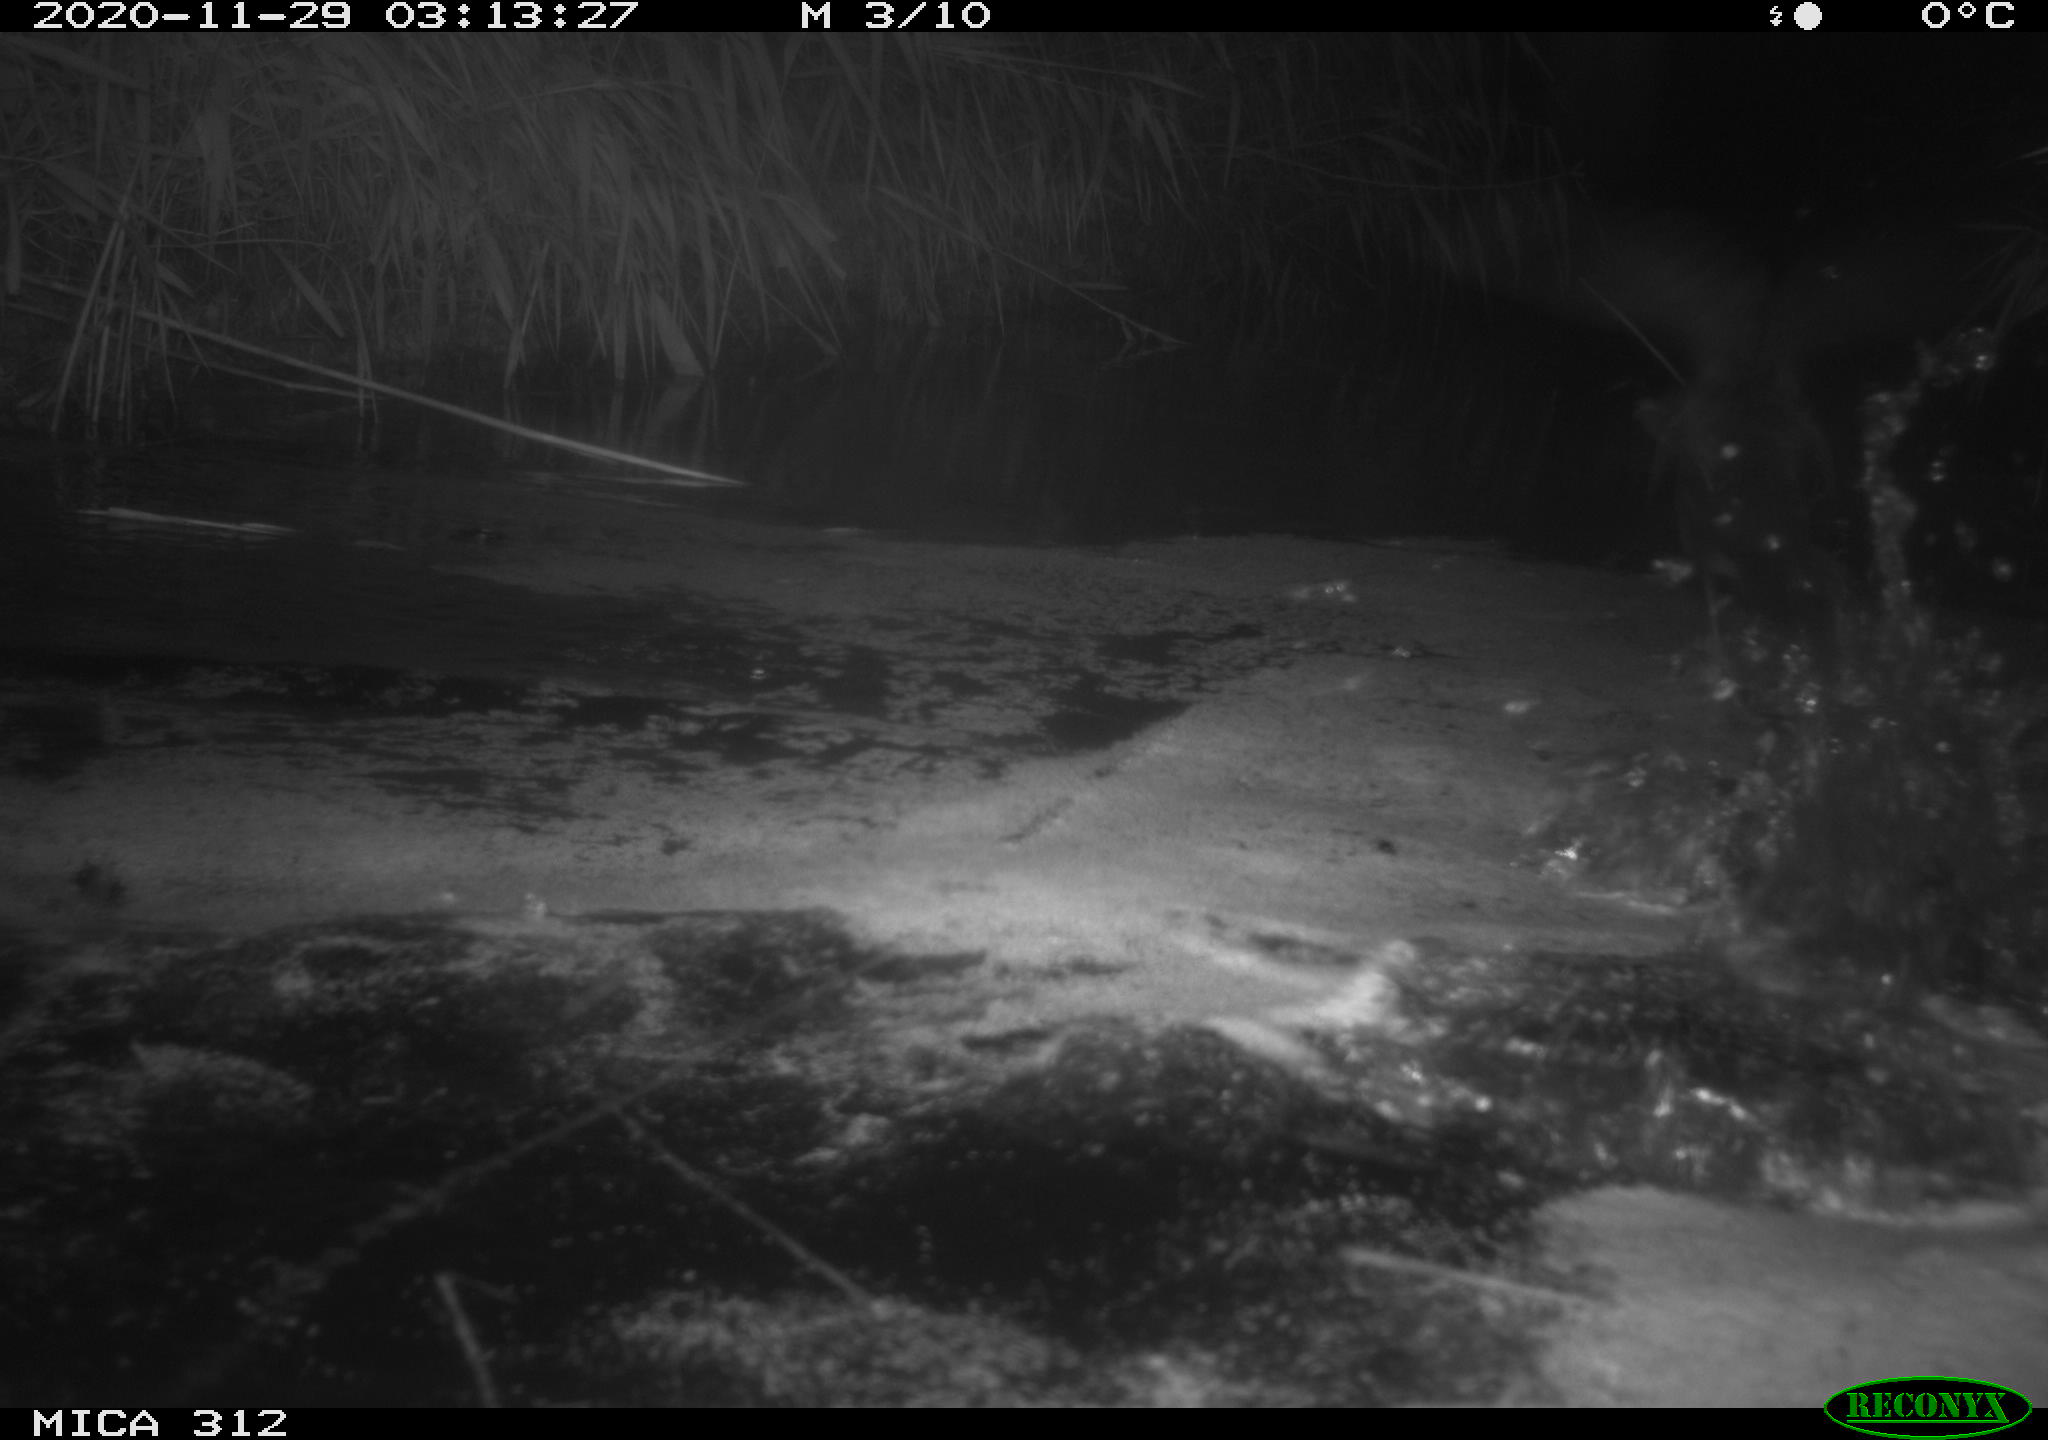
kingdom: Animalia
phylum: Chordata
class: Aves
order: Gruiformes
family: Rallidae
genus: Gallinula
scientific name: Gallinula chloropus
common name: Common moorhen
